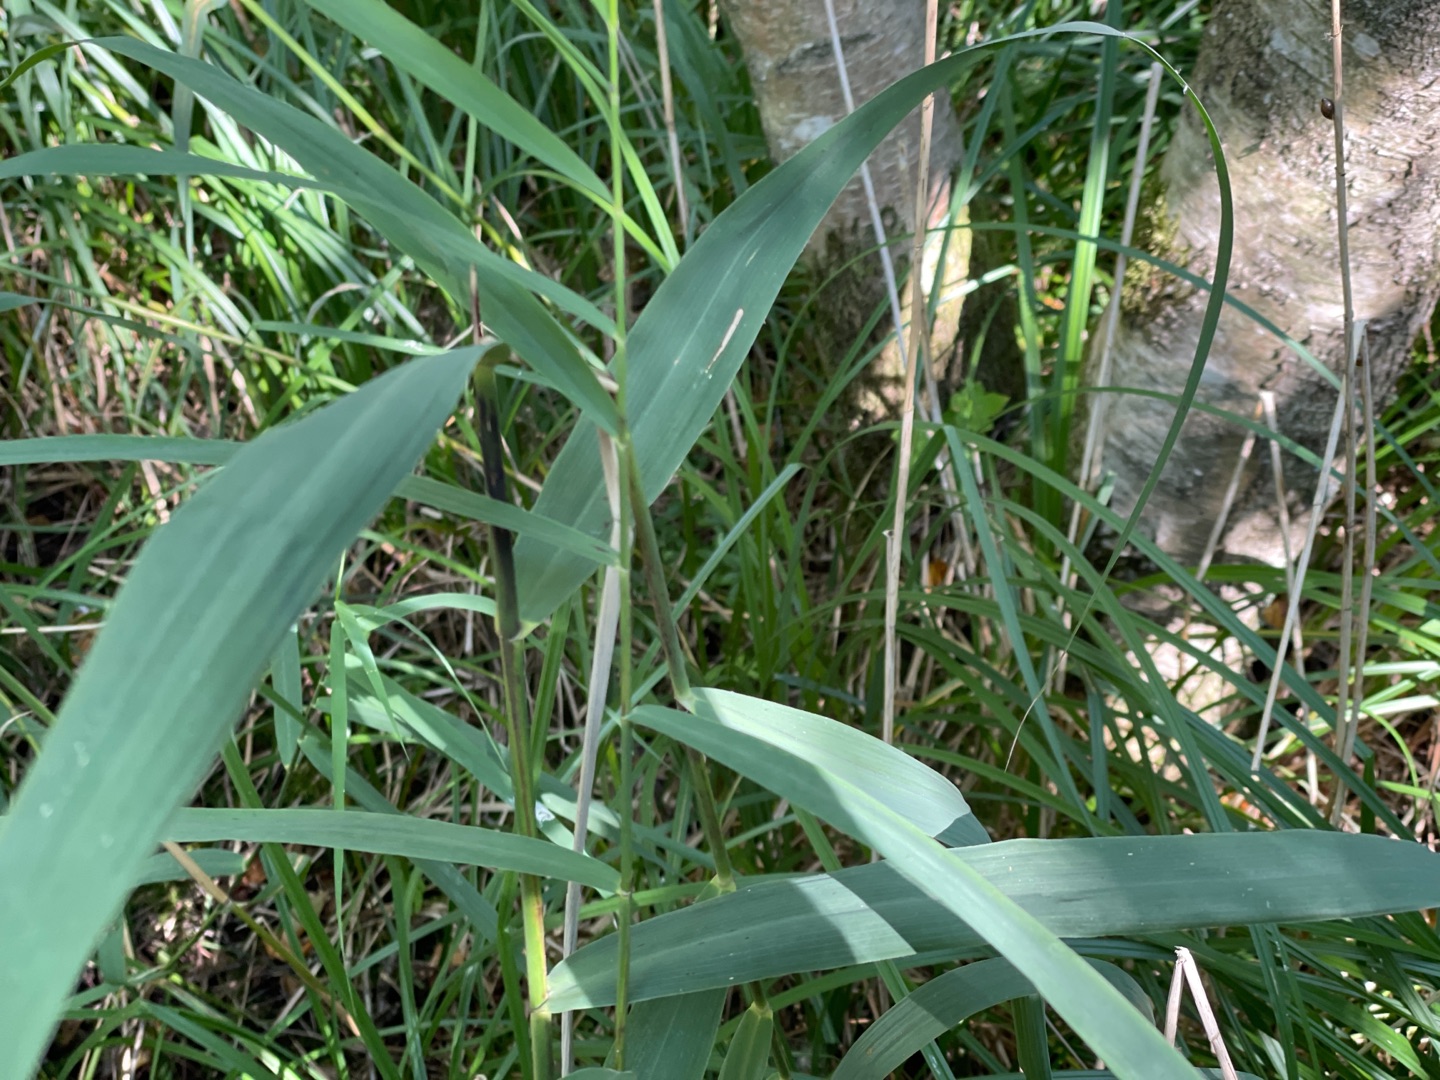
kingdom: Plantae
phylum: Tracheophyta
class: Liliopsida
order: Poales
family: Poaceae
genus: Phragmites
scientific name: Phragmites australis
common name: Tagrør
